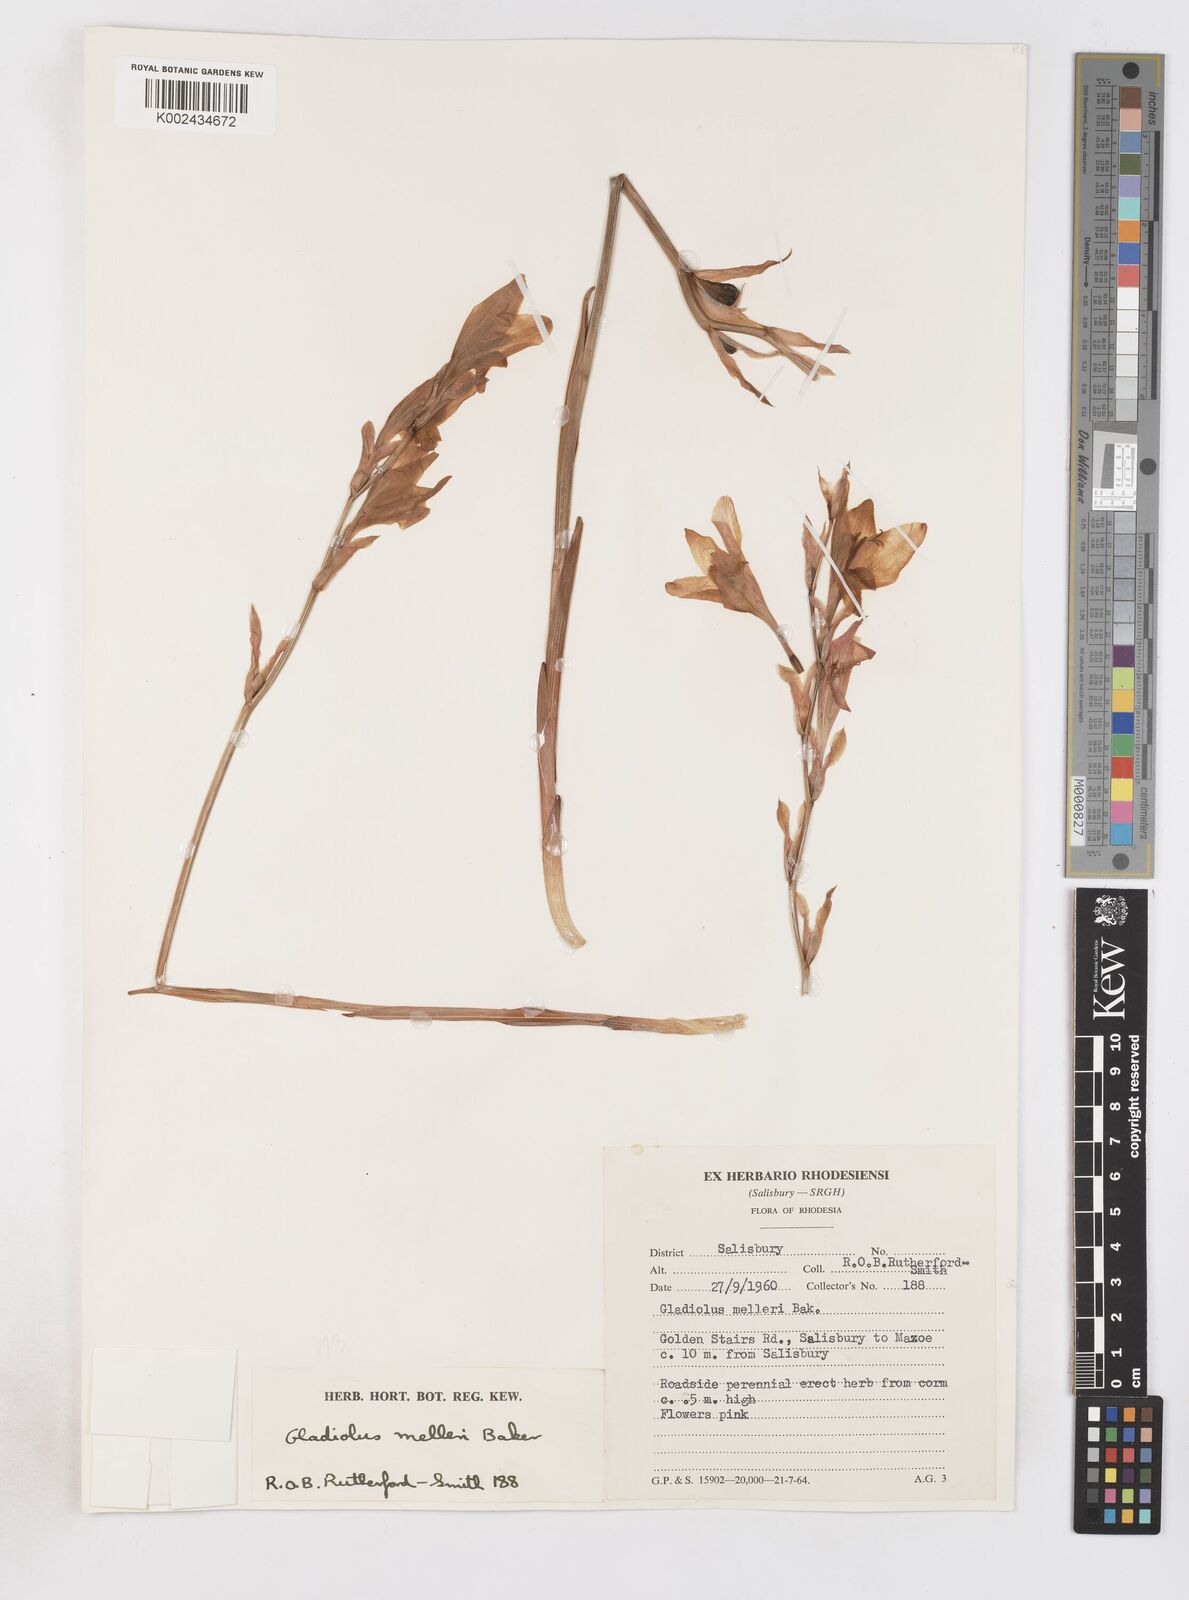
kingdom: Plantae
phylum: Tracheophyta
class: Liliopsida
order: Asparagales
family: Iridaceae
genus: Gladiolus
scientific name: Gladiolus melleri
